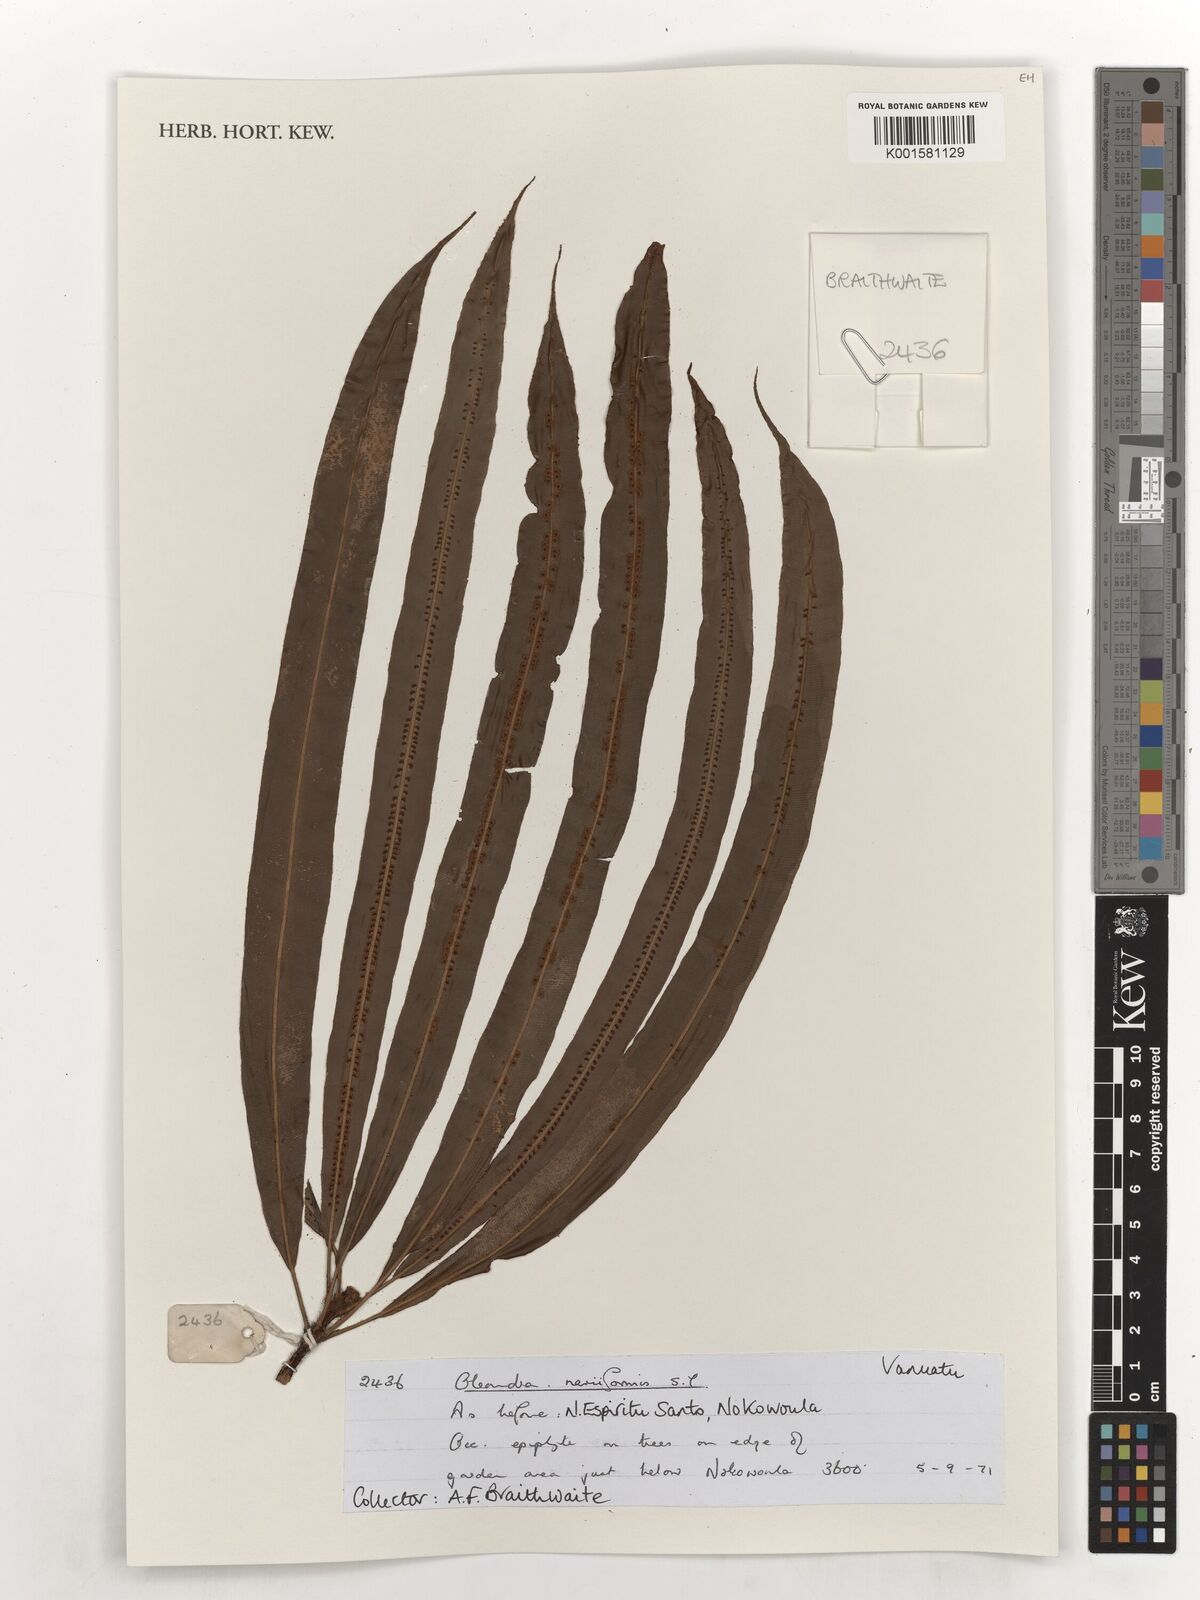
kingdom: Plantae
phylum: Tracheophyta
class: Polypodiopsida
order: Polypodiales
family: Oleandraceae
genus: Oleandra
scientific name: Oleandra musifolia
